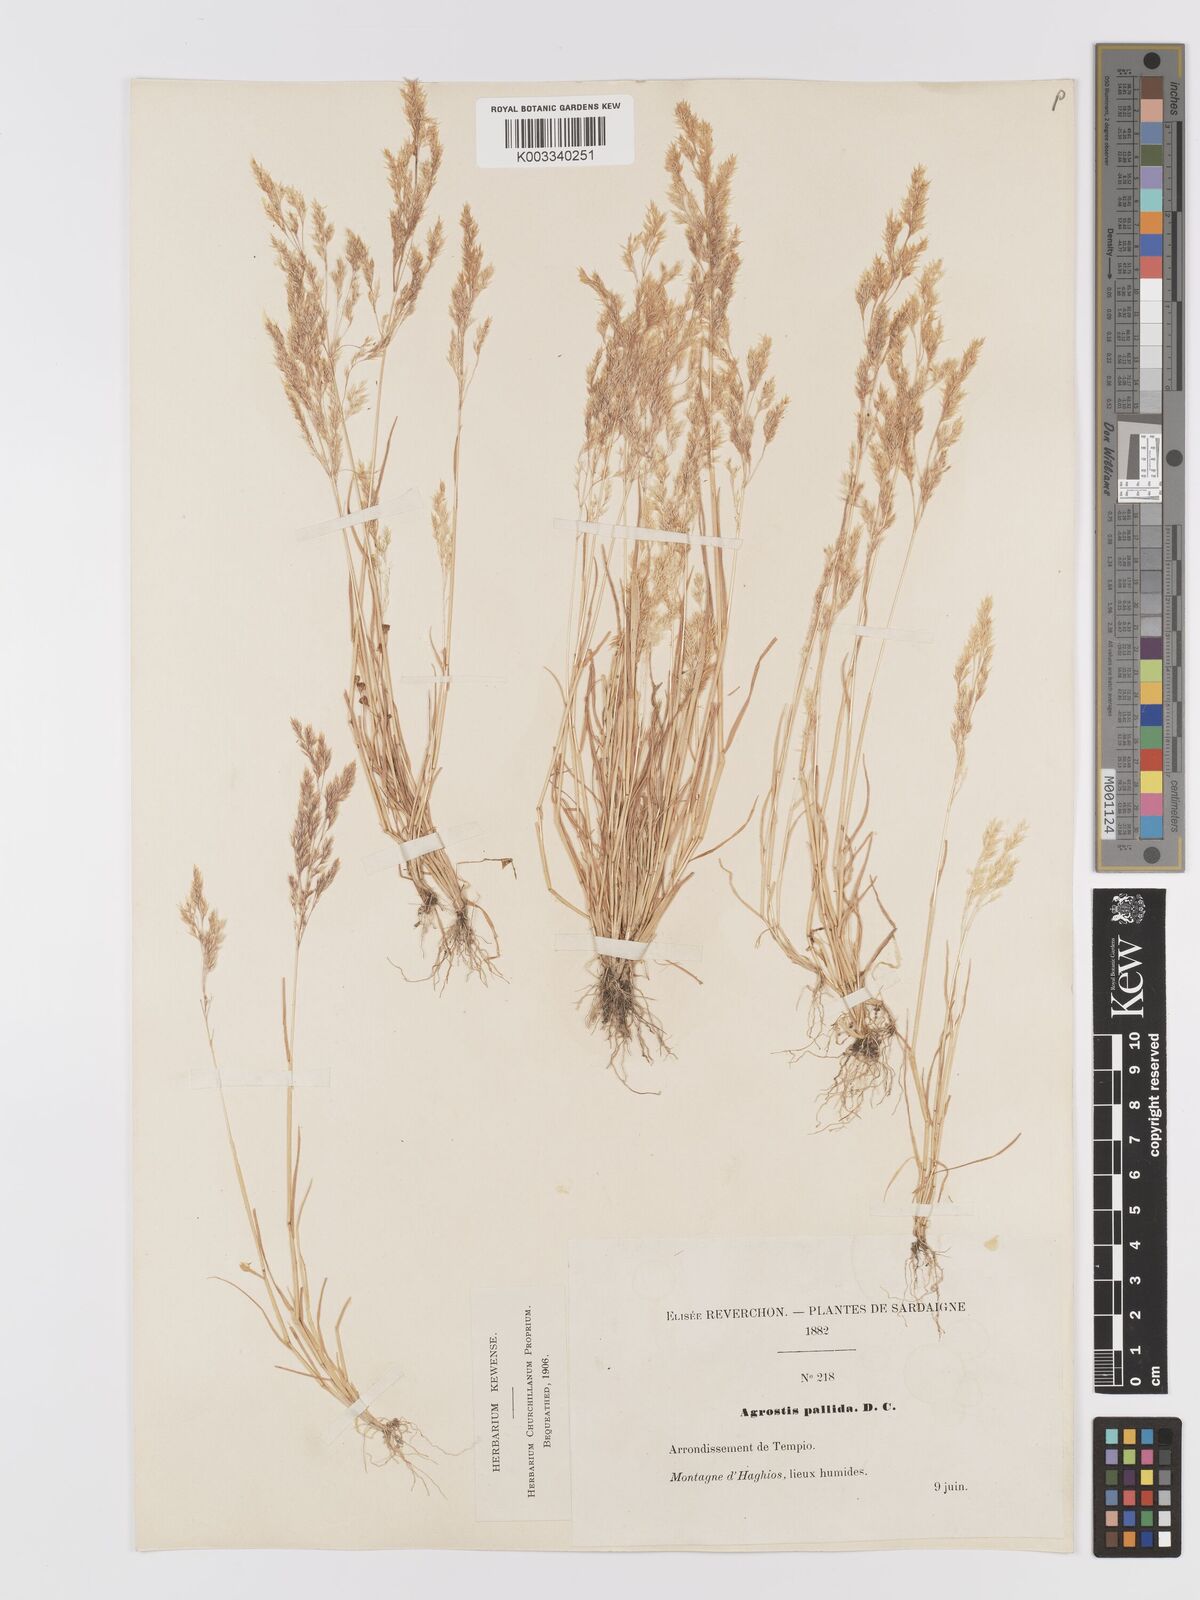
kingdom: Plantae
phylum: Tracheophyta
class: Liliopsida
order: Poales
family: Poaceae
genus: Agrostis
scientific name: Agrostis pourretii
